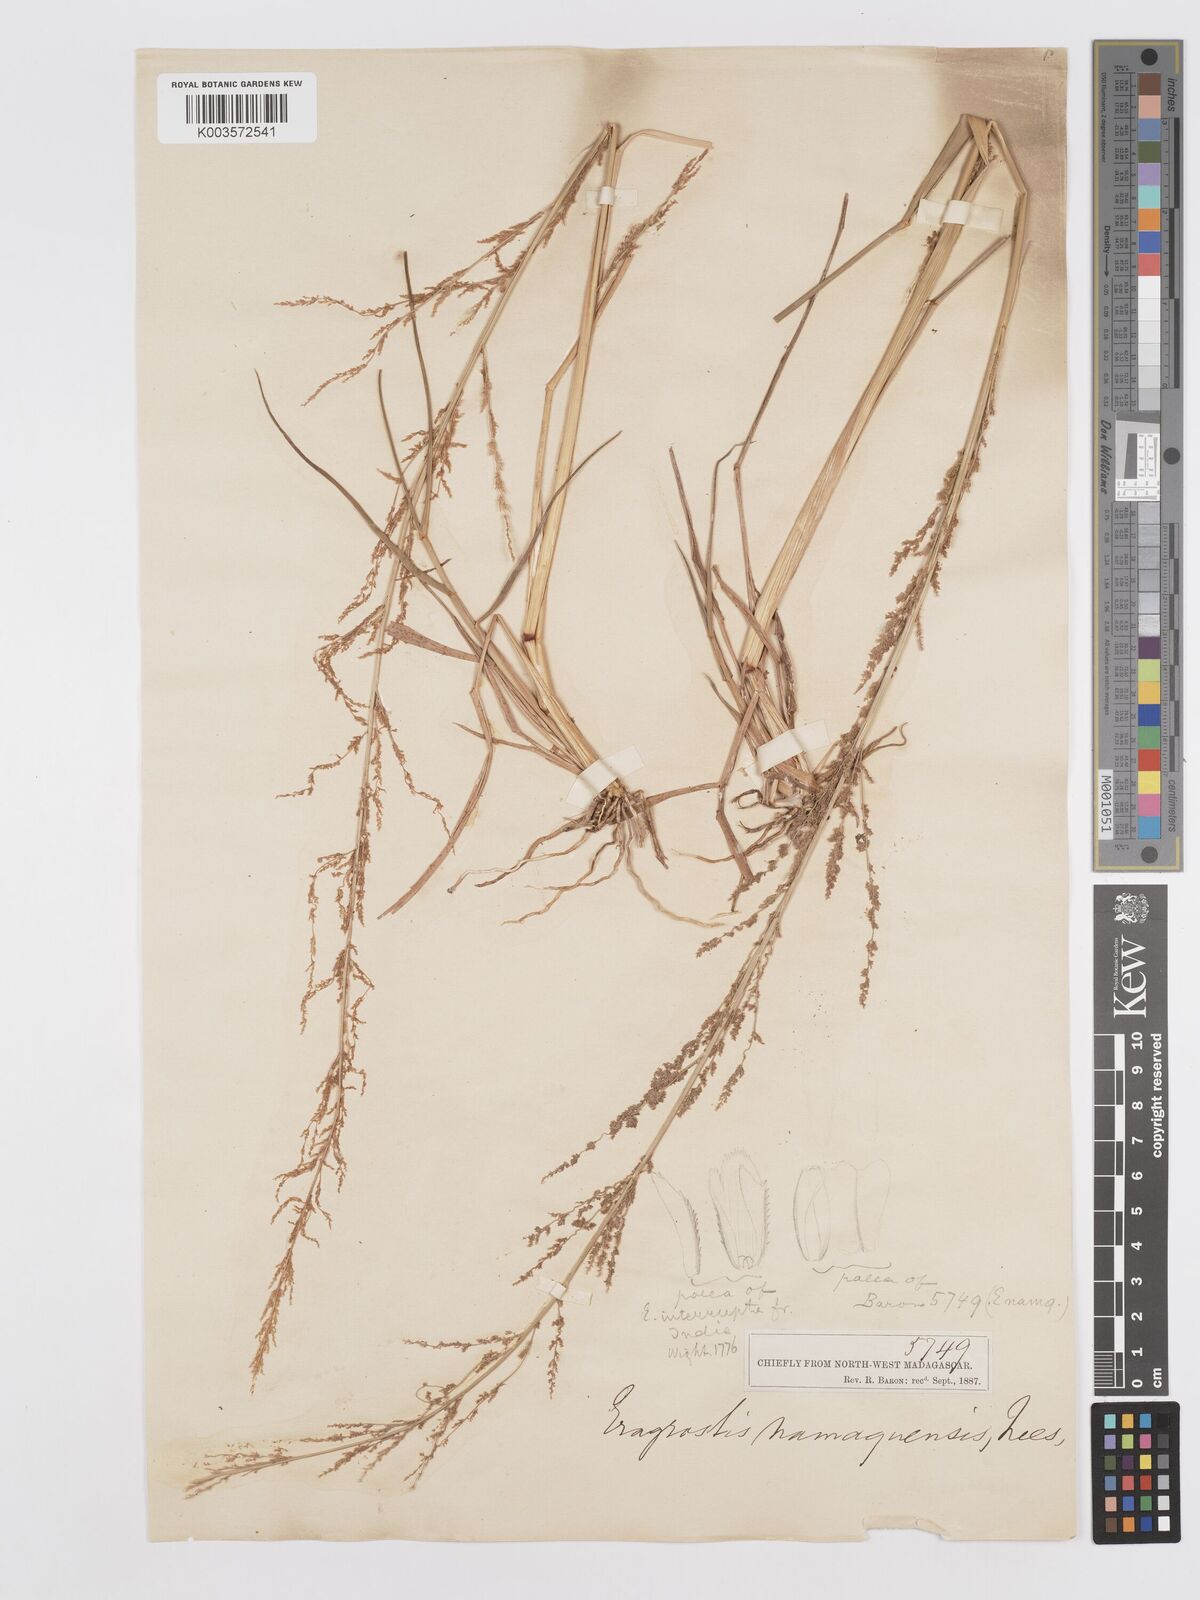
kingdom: Plantae
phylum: Tracheophyta
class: Liliopsida
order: Poales
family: Poaceae
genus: Eragrostis
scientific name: Eragrostis japonica
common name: Pond lovegrass
